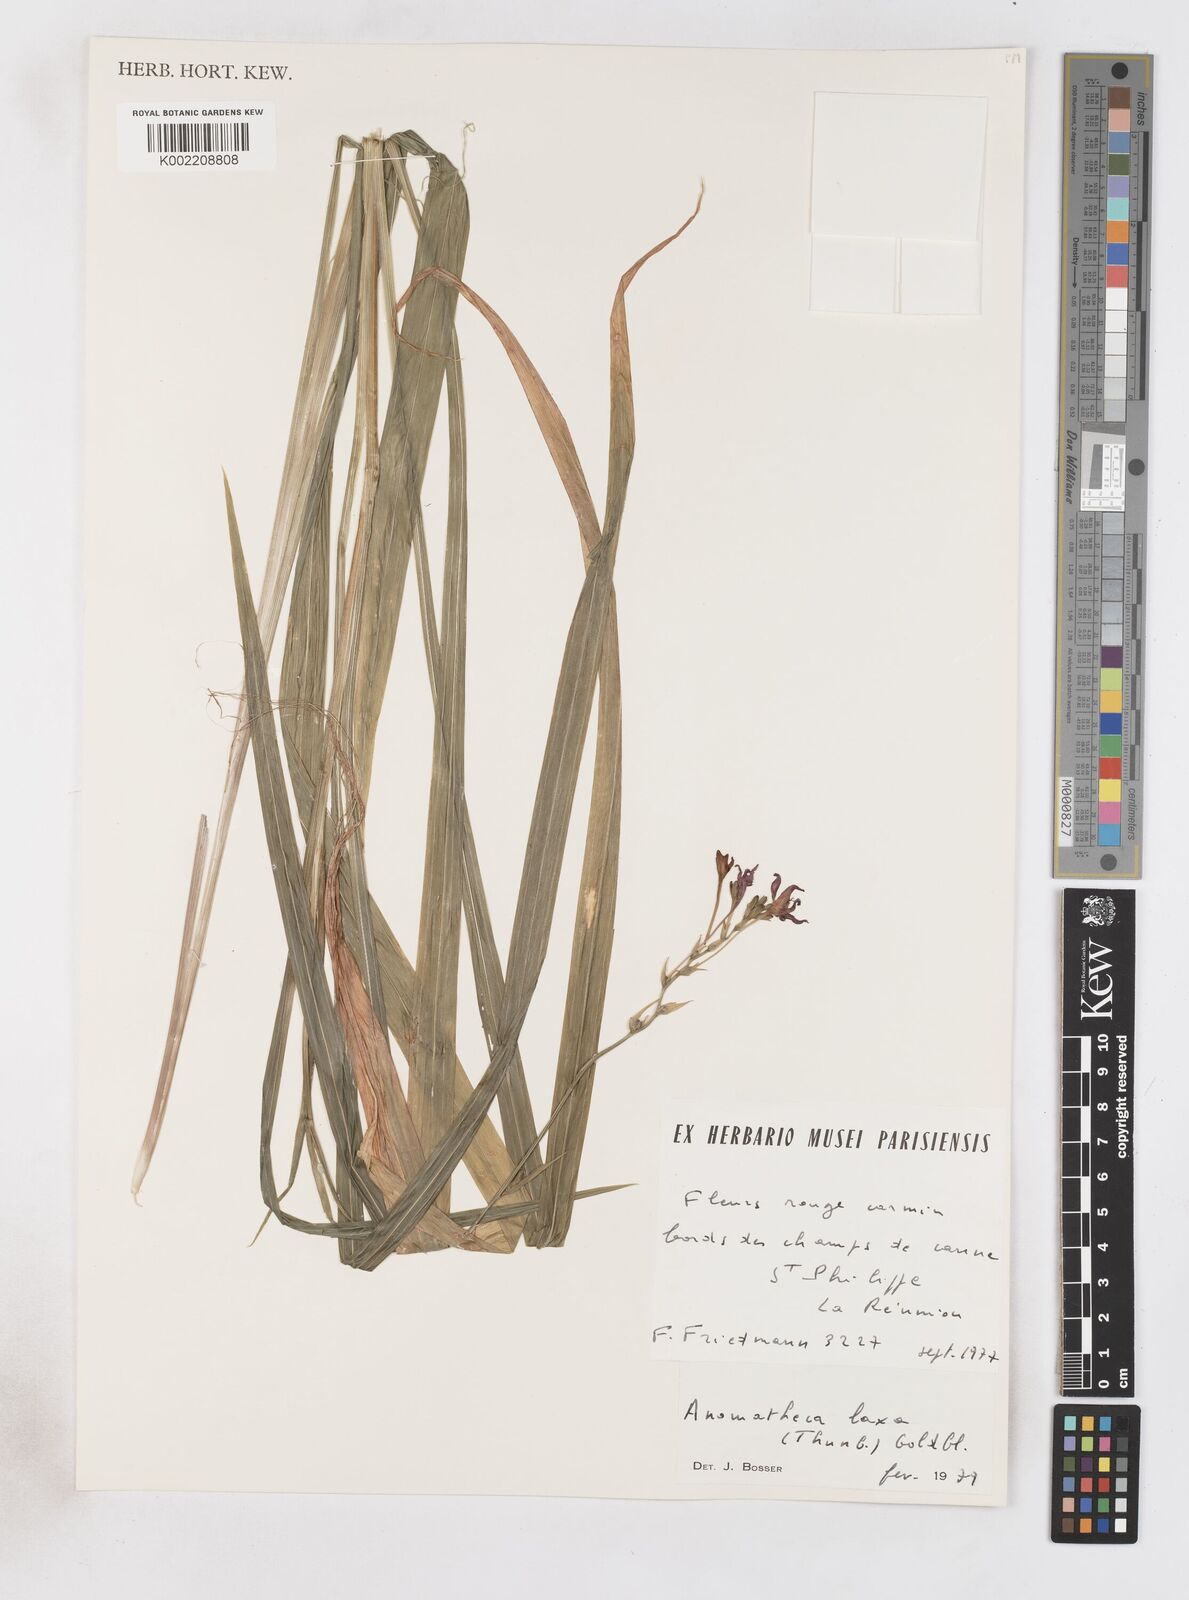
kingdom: Plantae
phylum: Tracheophyta
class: Liliopsida
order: Asparagales
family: Iridaceae
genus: Freesia
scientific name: Freesia laxa
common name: False freesia
